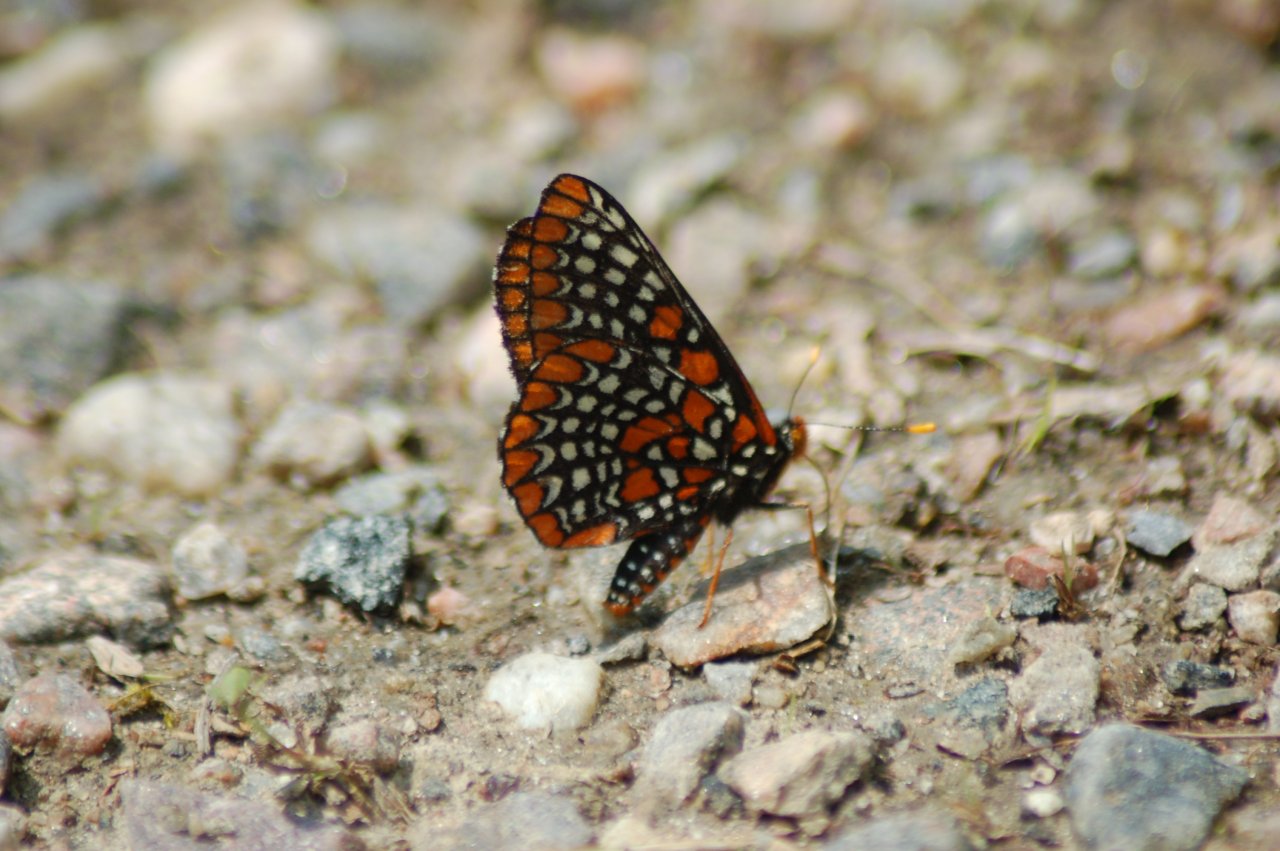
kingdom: Animalia
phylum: Arthropoda
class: Insecta
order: Lepidoptera
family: Nymphalidae
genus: Euphydryas
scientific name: Euphydryas phaeton
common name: Baltimore Checkerspot
